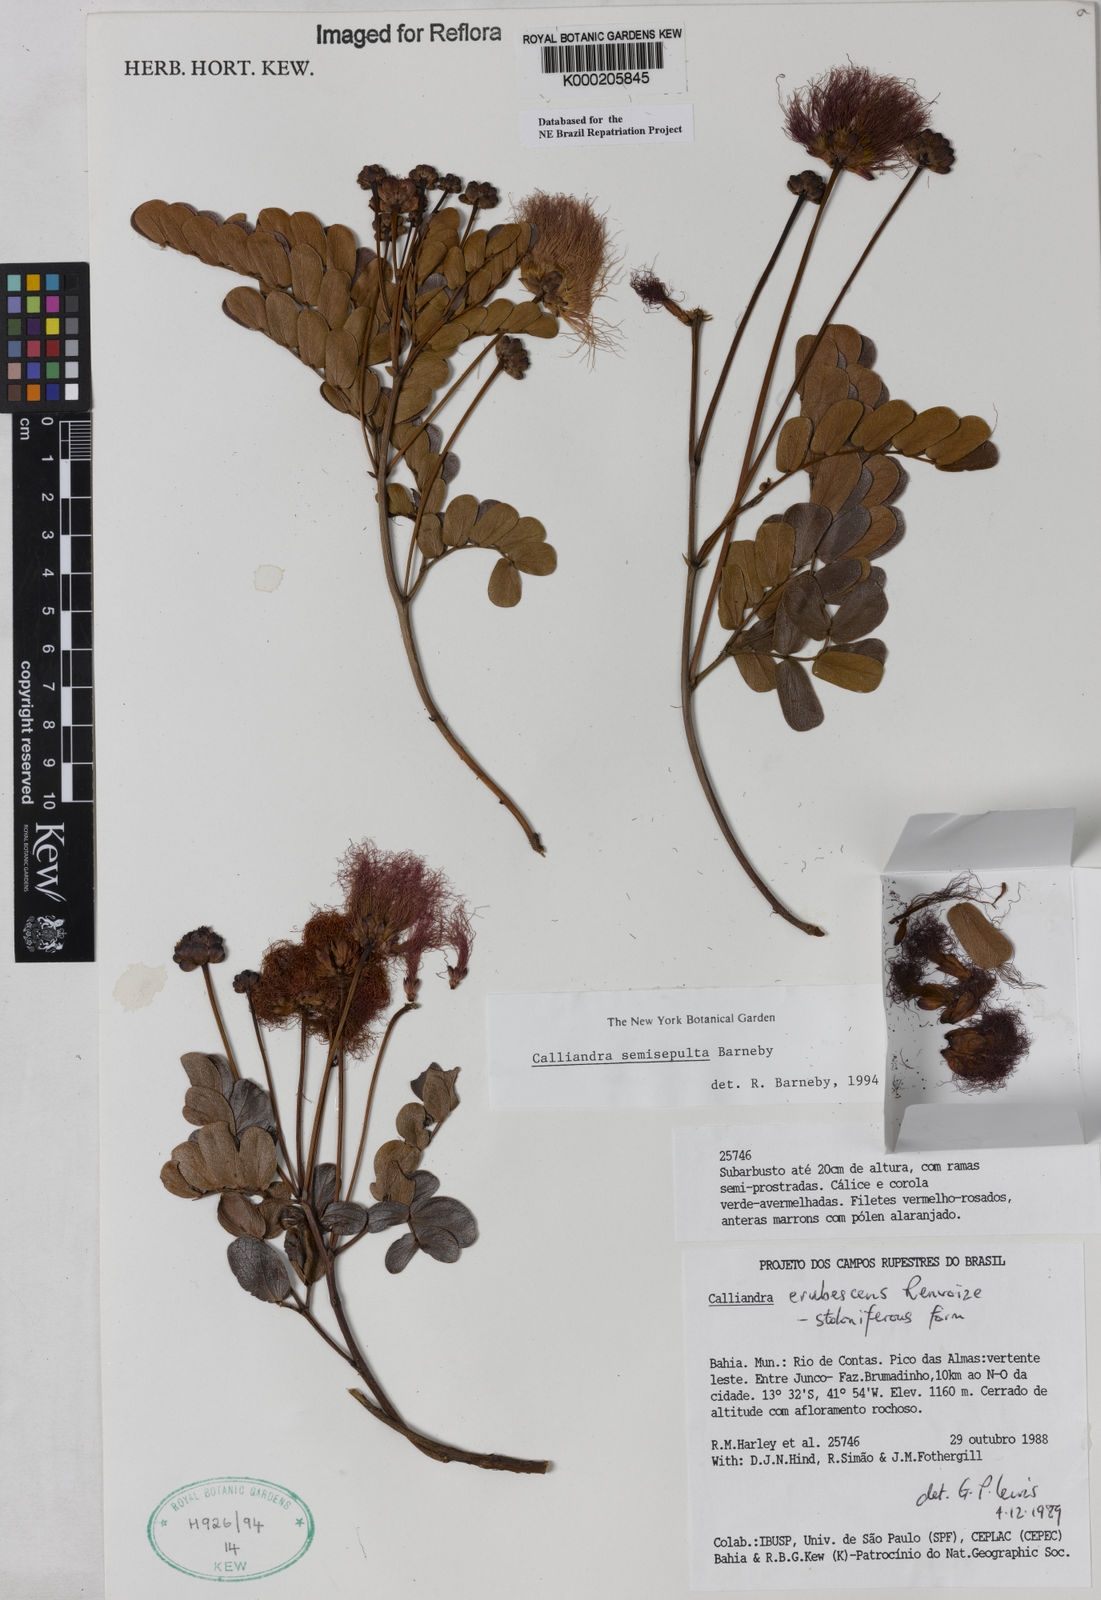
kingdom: Plantae
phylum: Tracheophyta
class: Magnoliopsida
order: Fabales
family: Fabaceae
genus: Calliandra
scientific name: Calliandra semisepulta
